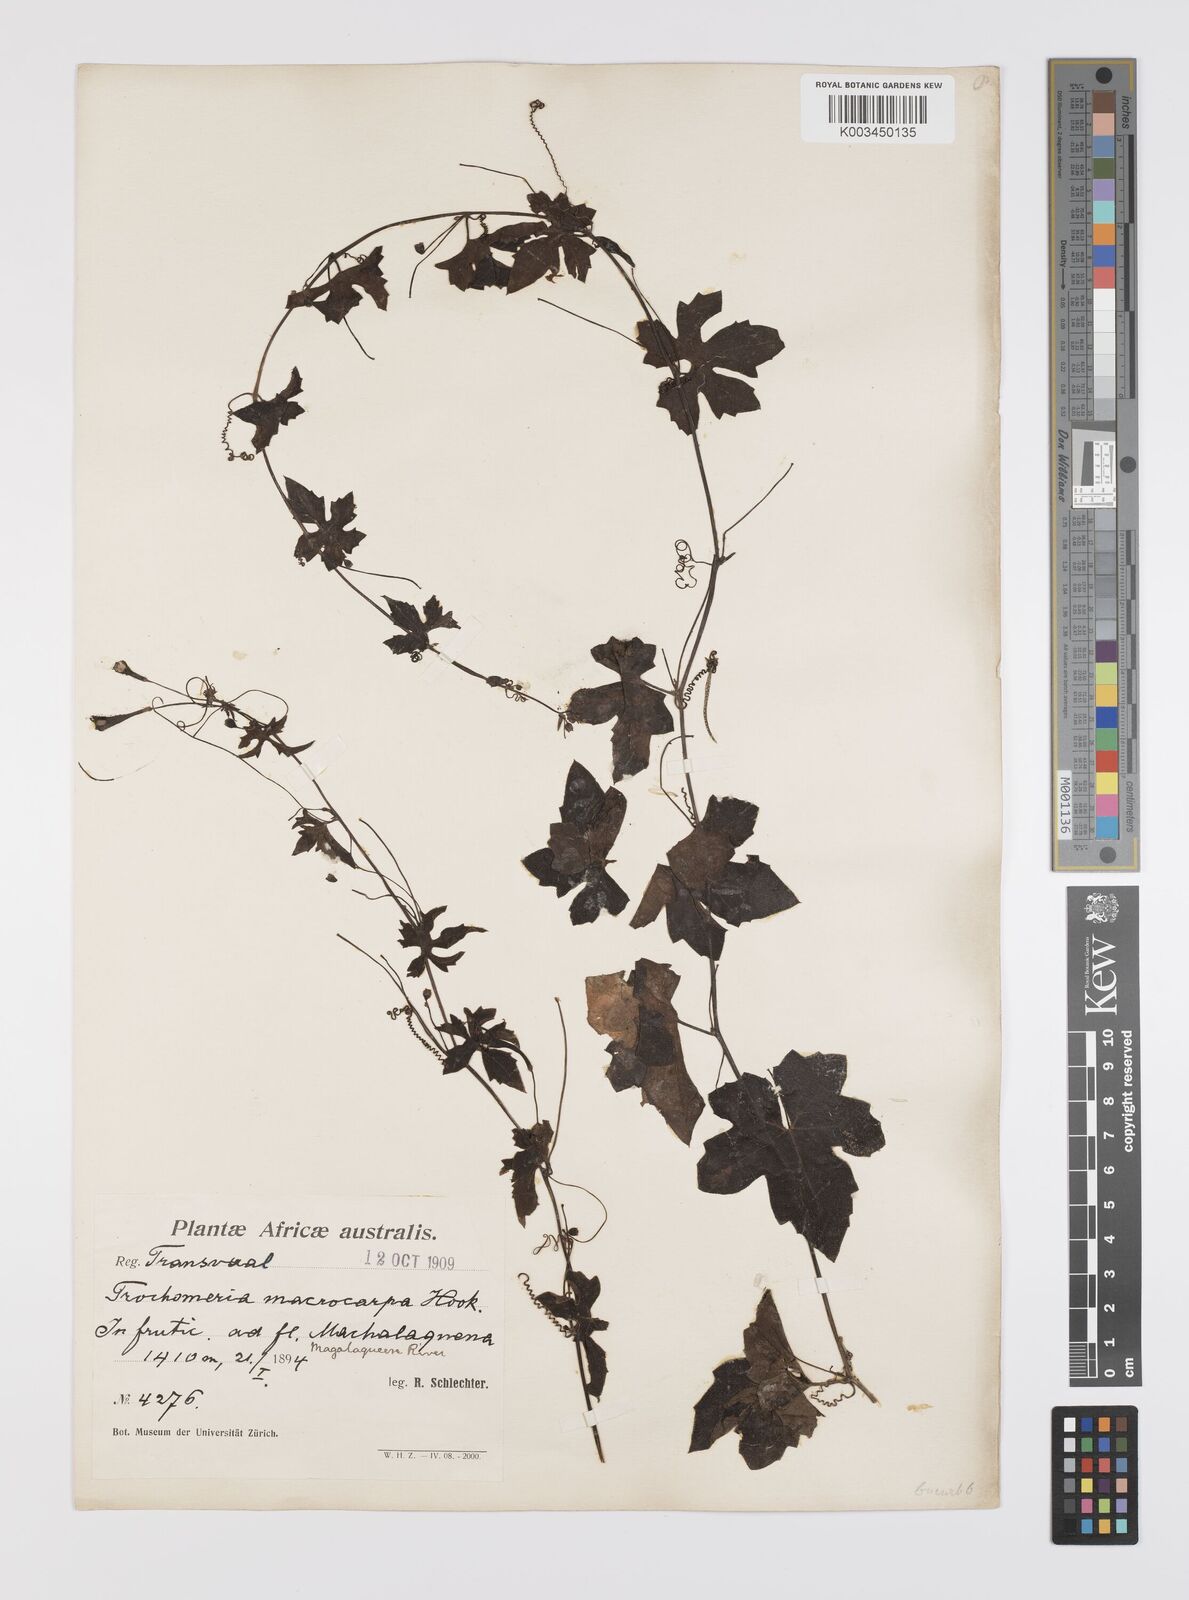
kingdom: Plantae
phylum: Tracheophyta
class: Magnoliopsida
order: Cucurbitales
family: Cucurbitaceae
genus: Trochomeria
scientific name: Trochomeria macrocarpa
